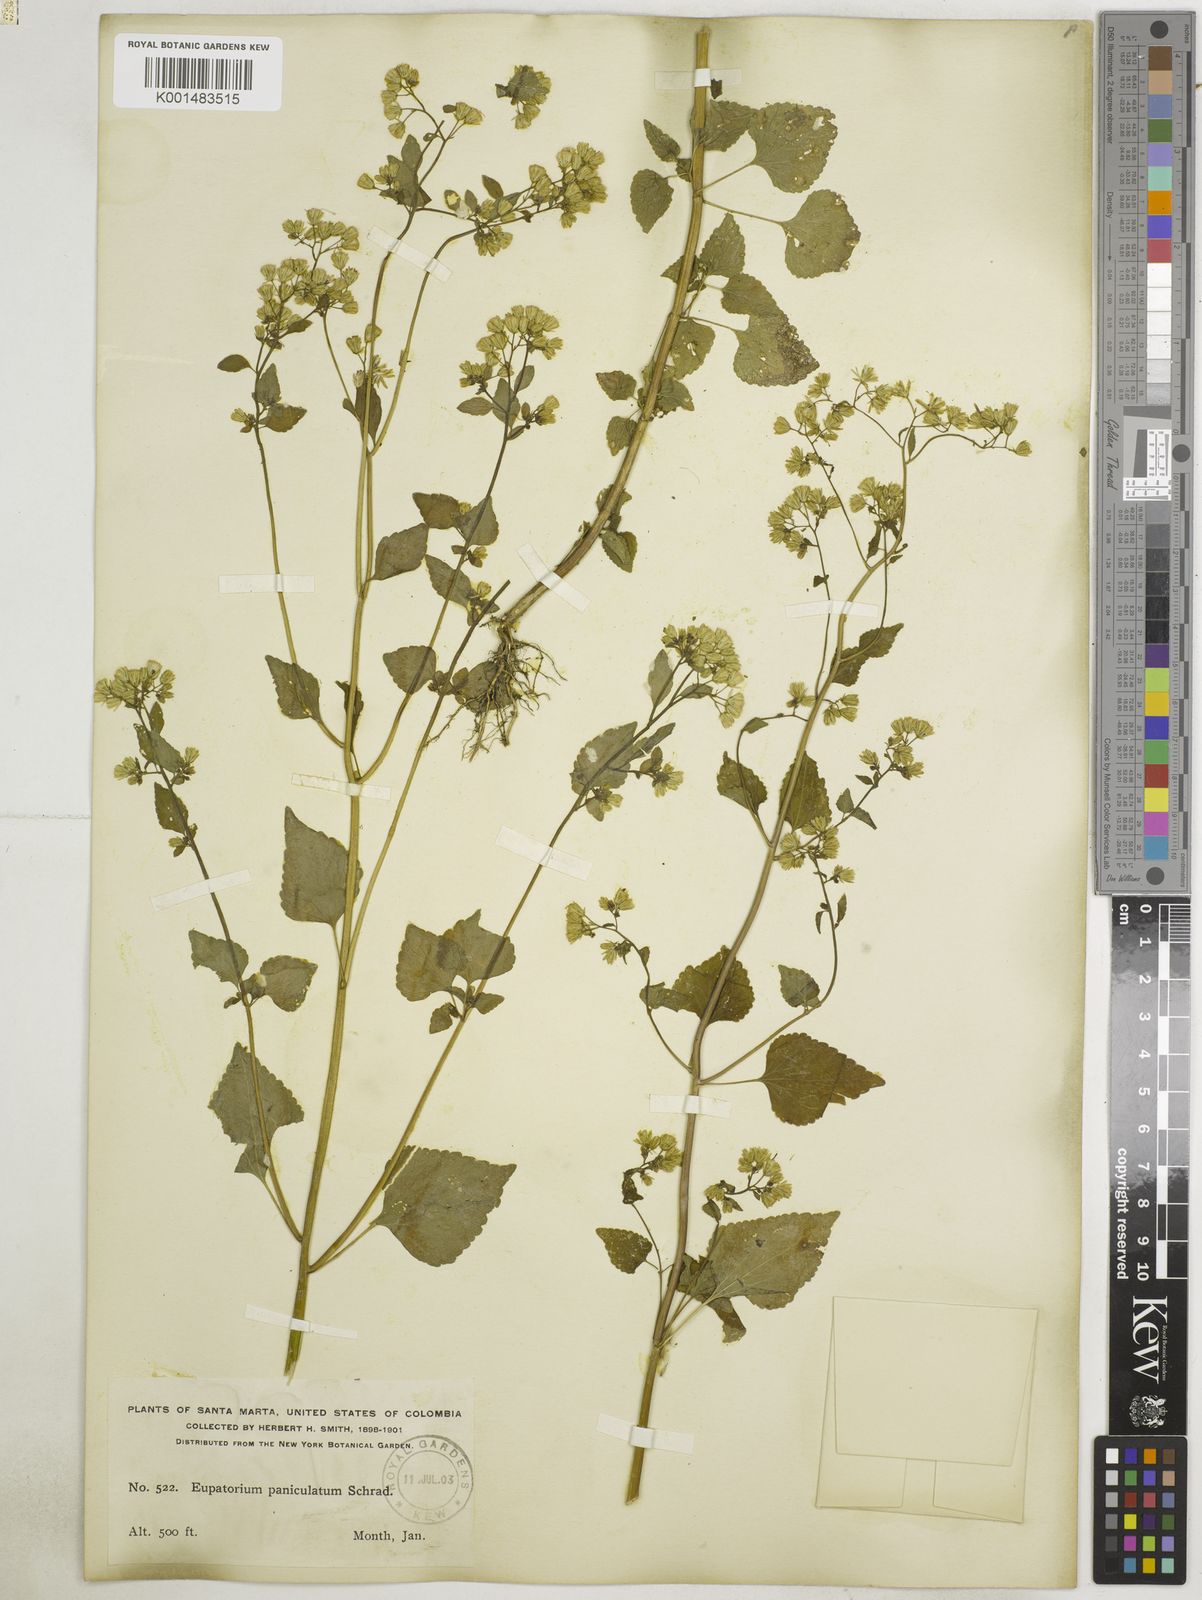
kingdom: Plantae
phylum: Tracheophyta
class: Magnoliopsida
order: Asterales
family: Asteraceae
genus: Fleischmannia
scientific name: Fleischmannia microstemon
